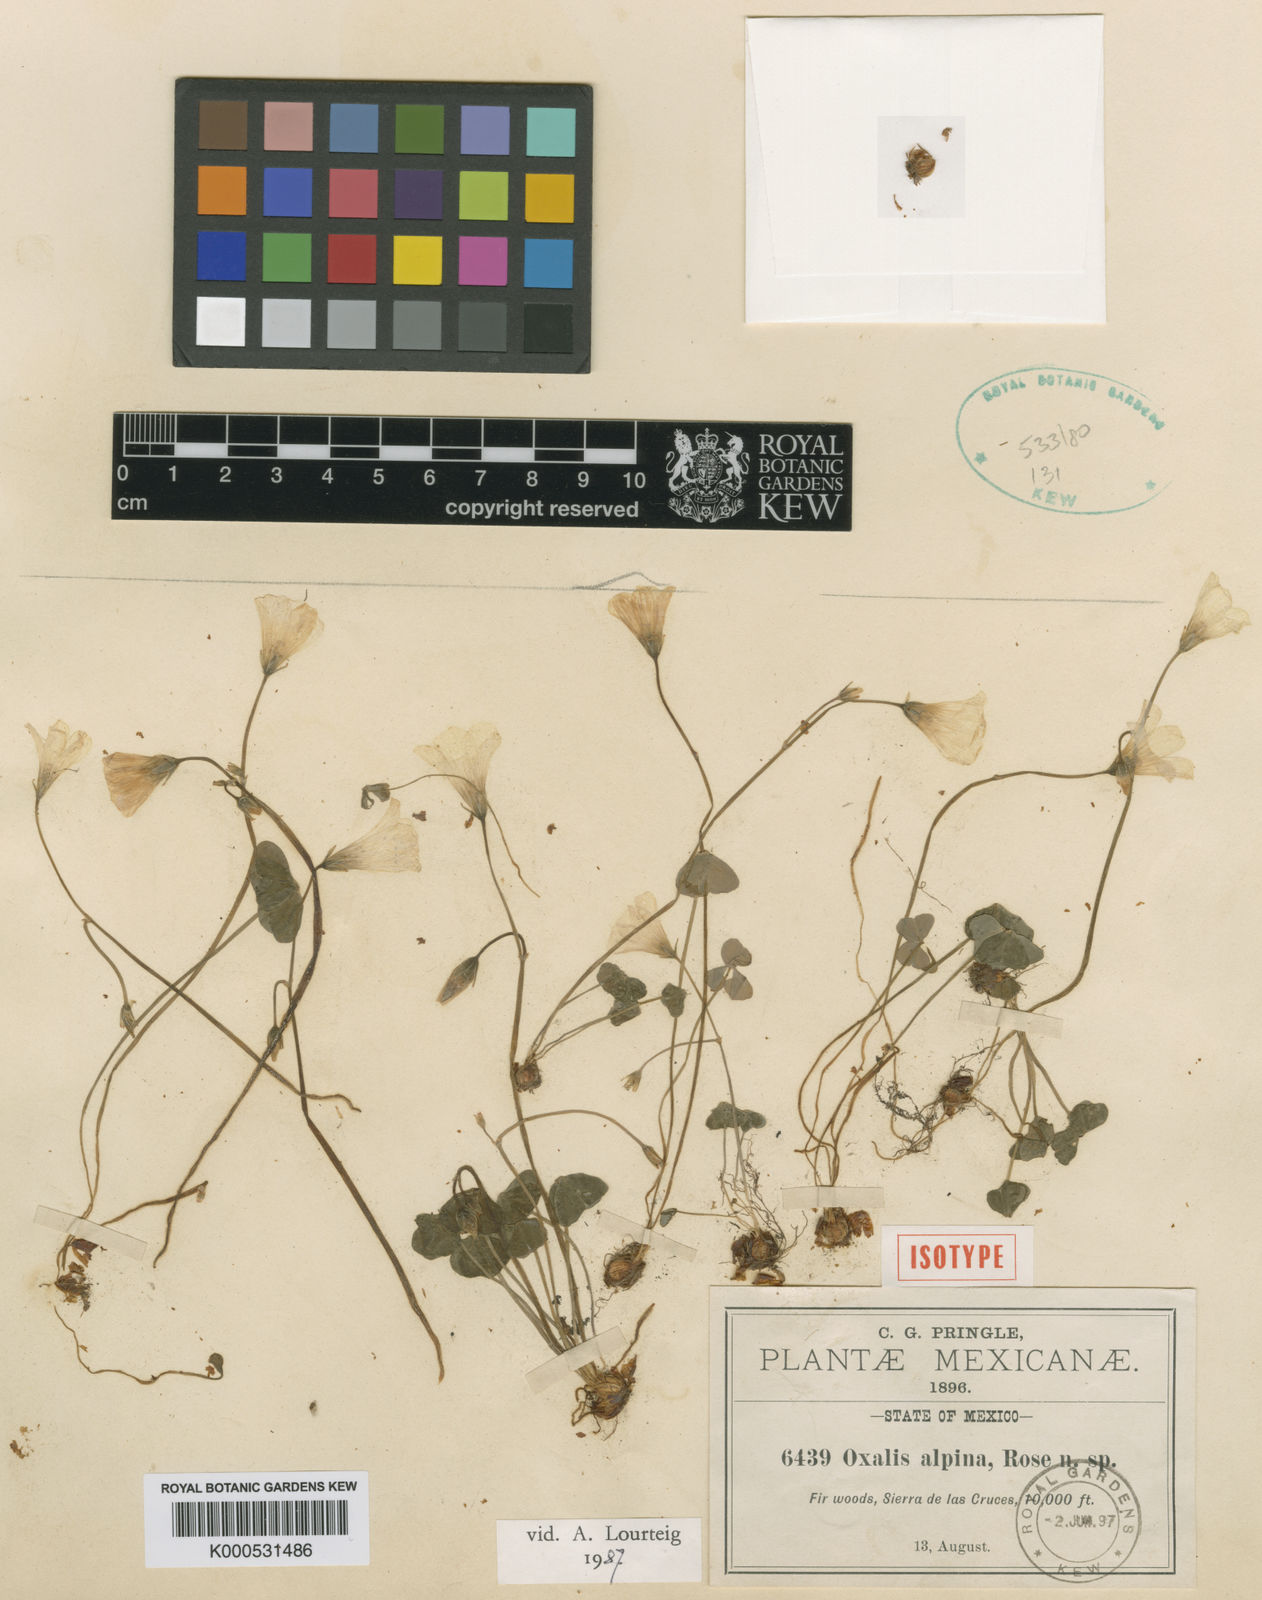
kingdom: Plantae
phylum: Tracheophyta
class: Magnoliopsida
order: Oxalidales
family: Oxalidaceae
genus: Oxalis
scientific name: Oxalis alpina
